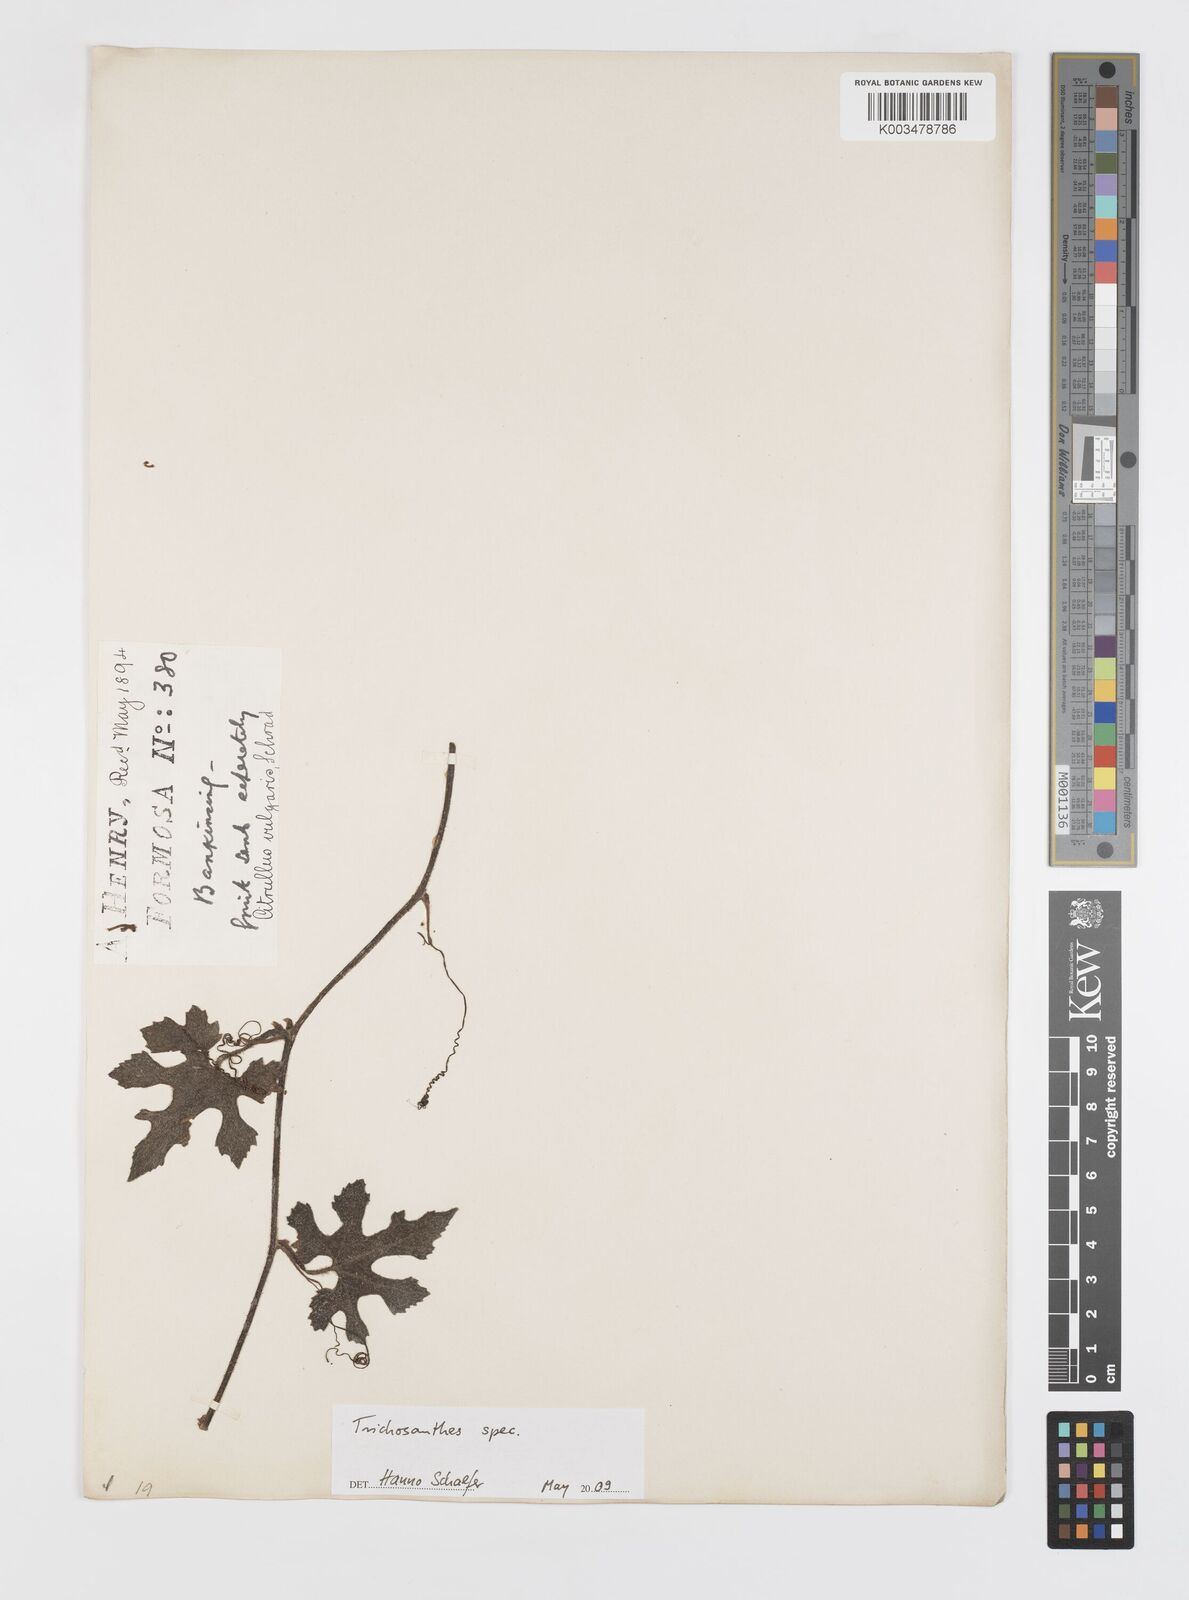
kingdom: Plantae
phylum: Tracheophyta
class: Magnoliopsida
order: Cucurbitales
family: Cucurbitaceae
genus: Trichosanthes
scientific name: Trichosanthes
